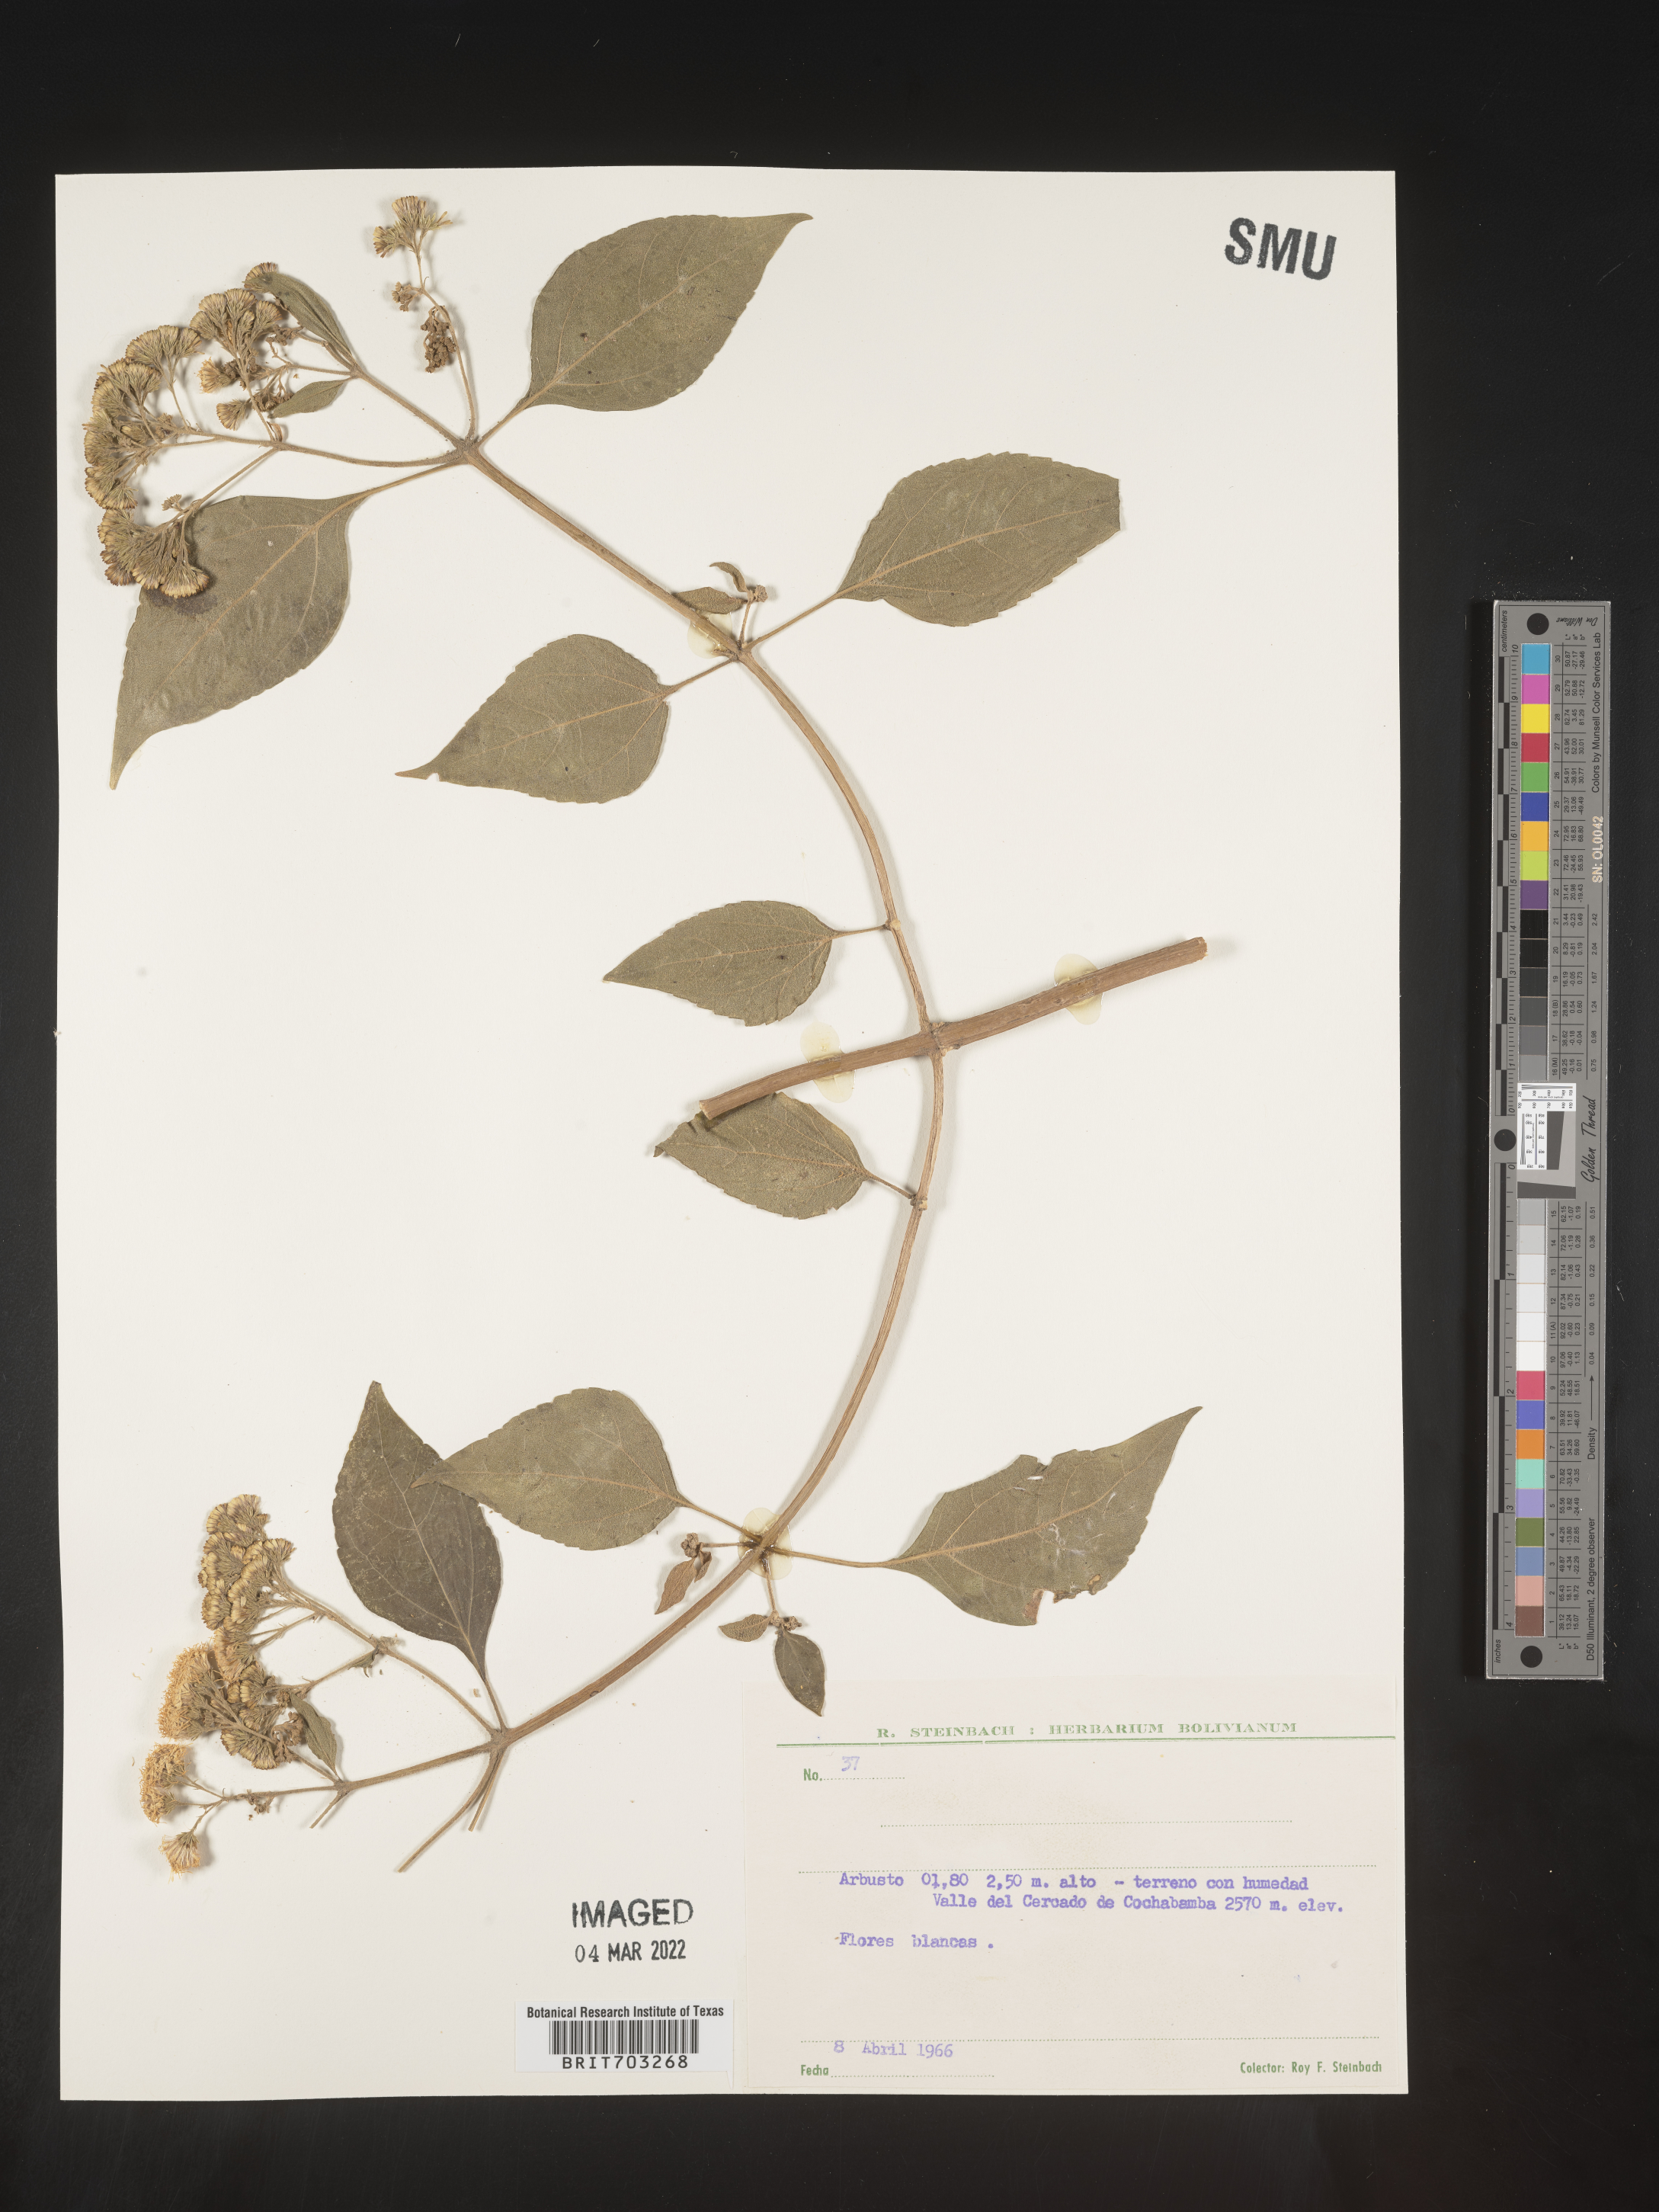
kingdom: Plantae
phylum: Tracheophyta
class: Magnoliopsida
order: Asterales
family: Asteraceae
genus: Eupatorium
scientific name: Eupatorium
